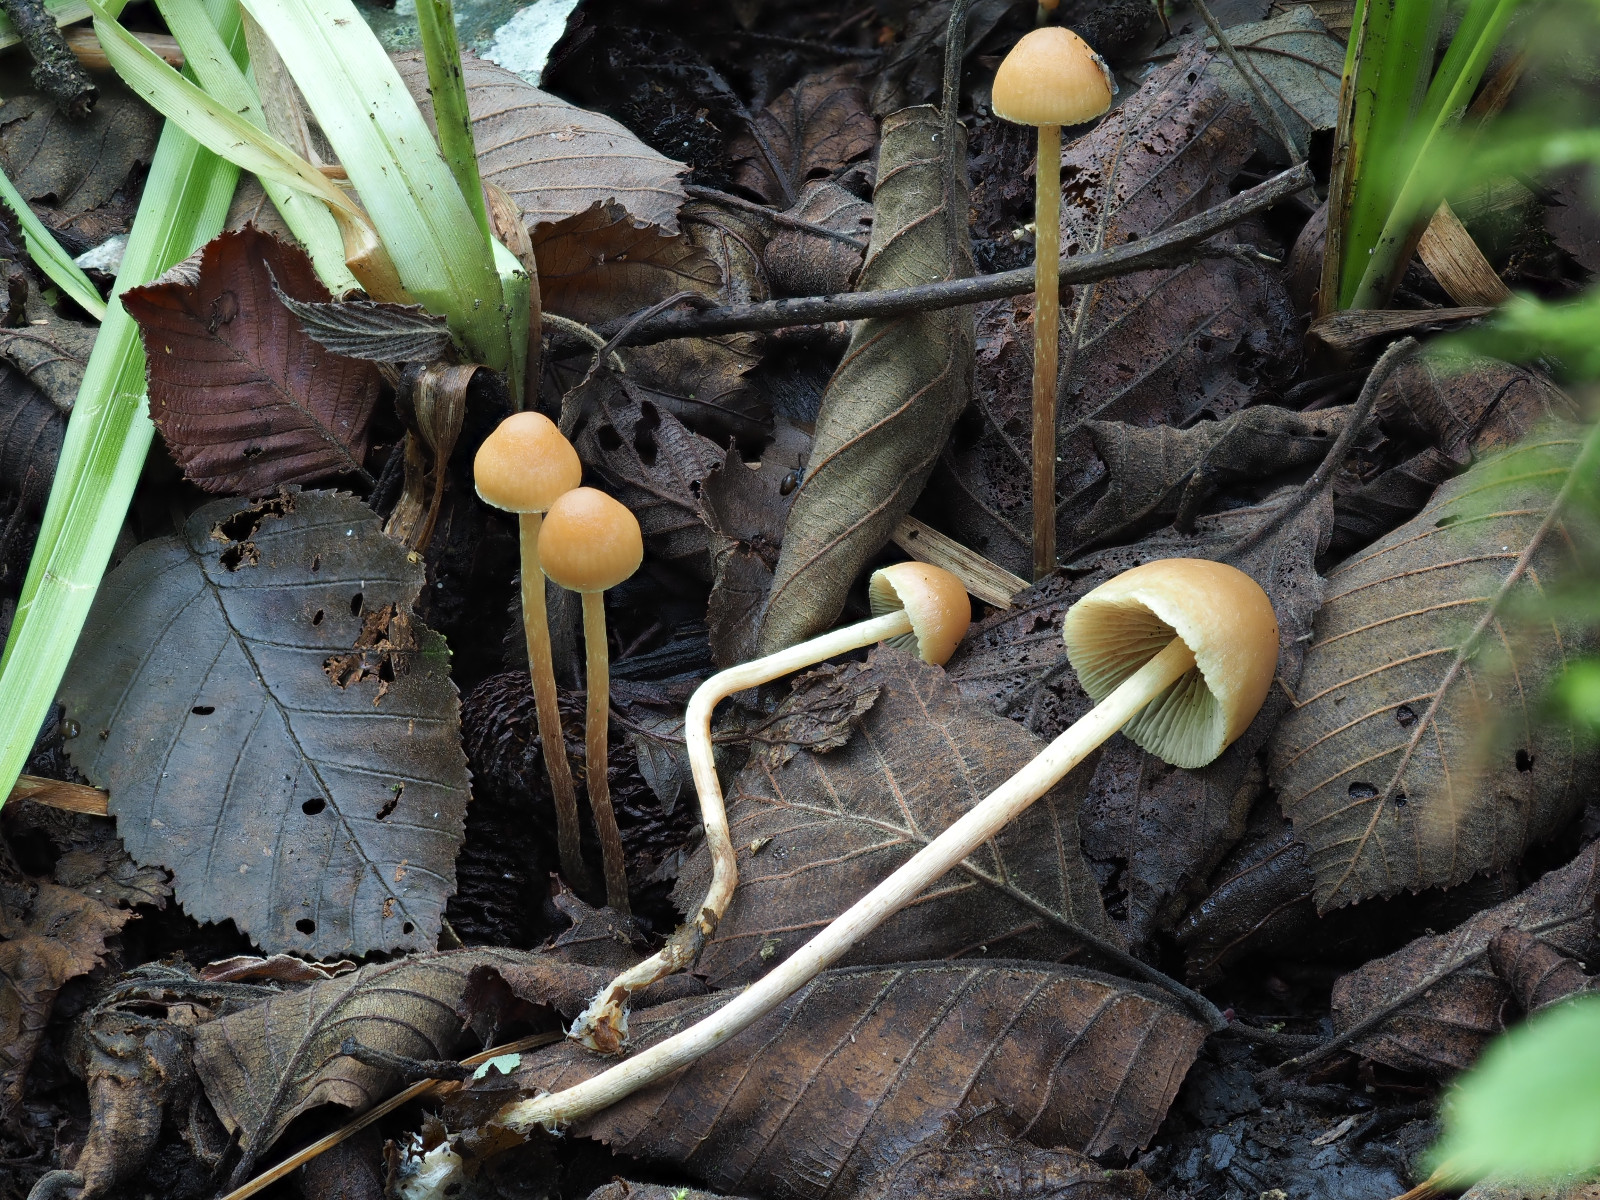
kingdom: Fungi
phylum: Basidiomycota
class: Agaricomycetes
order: Agaricales
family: Strophariaceae
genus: Hypholoma
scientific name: Hypholoma ericaeoides
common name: sump-svovlhat
